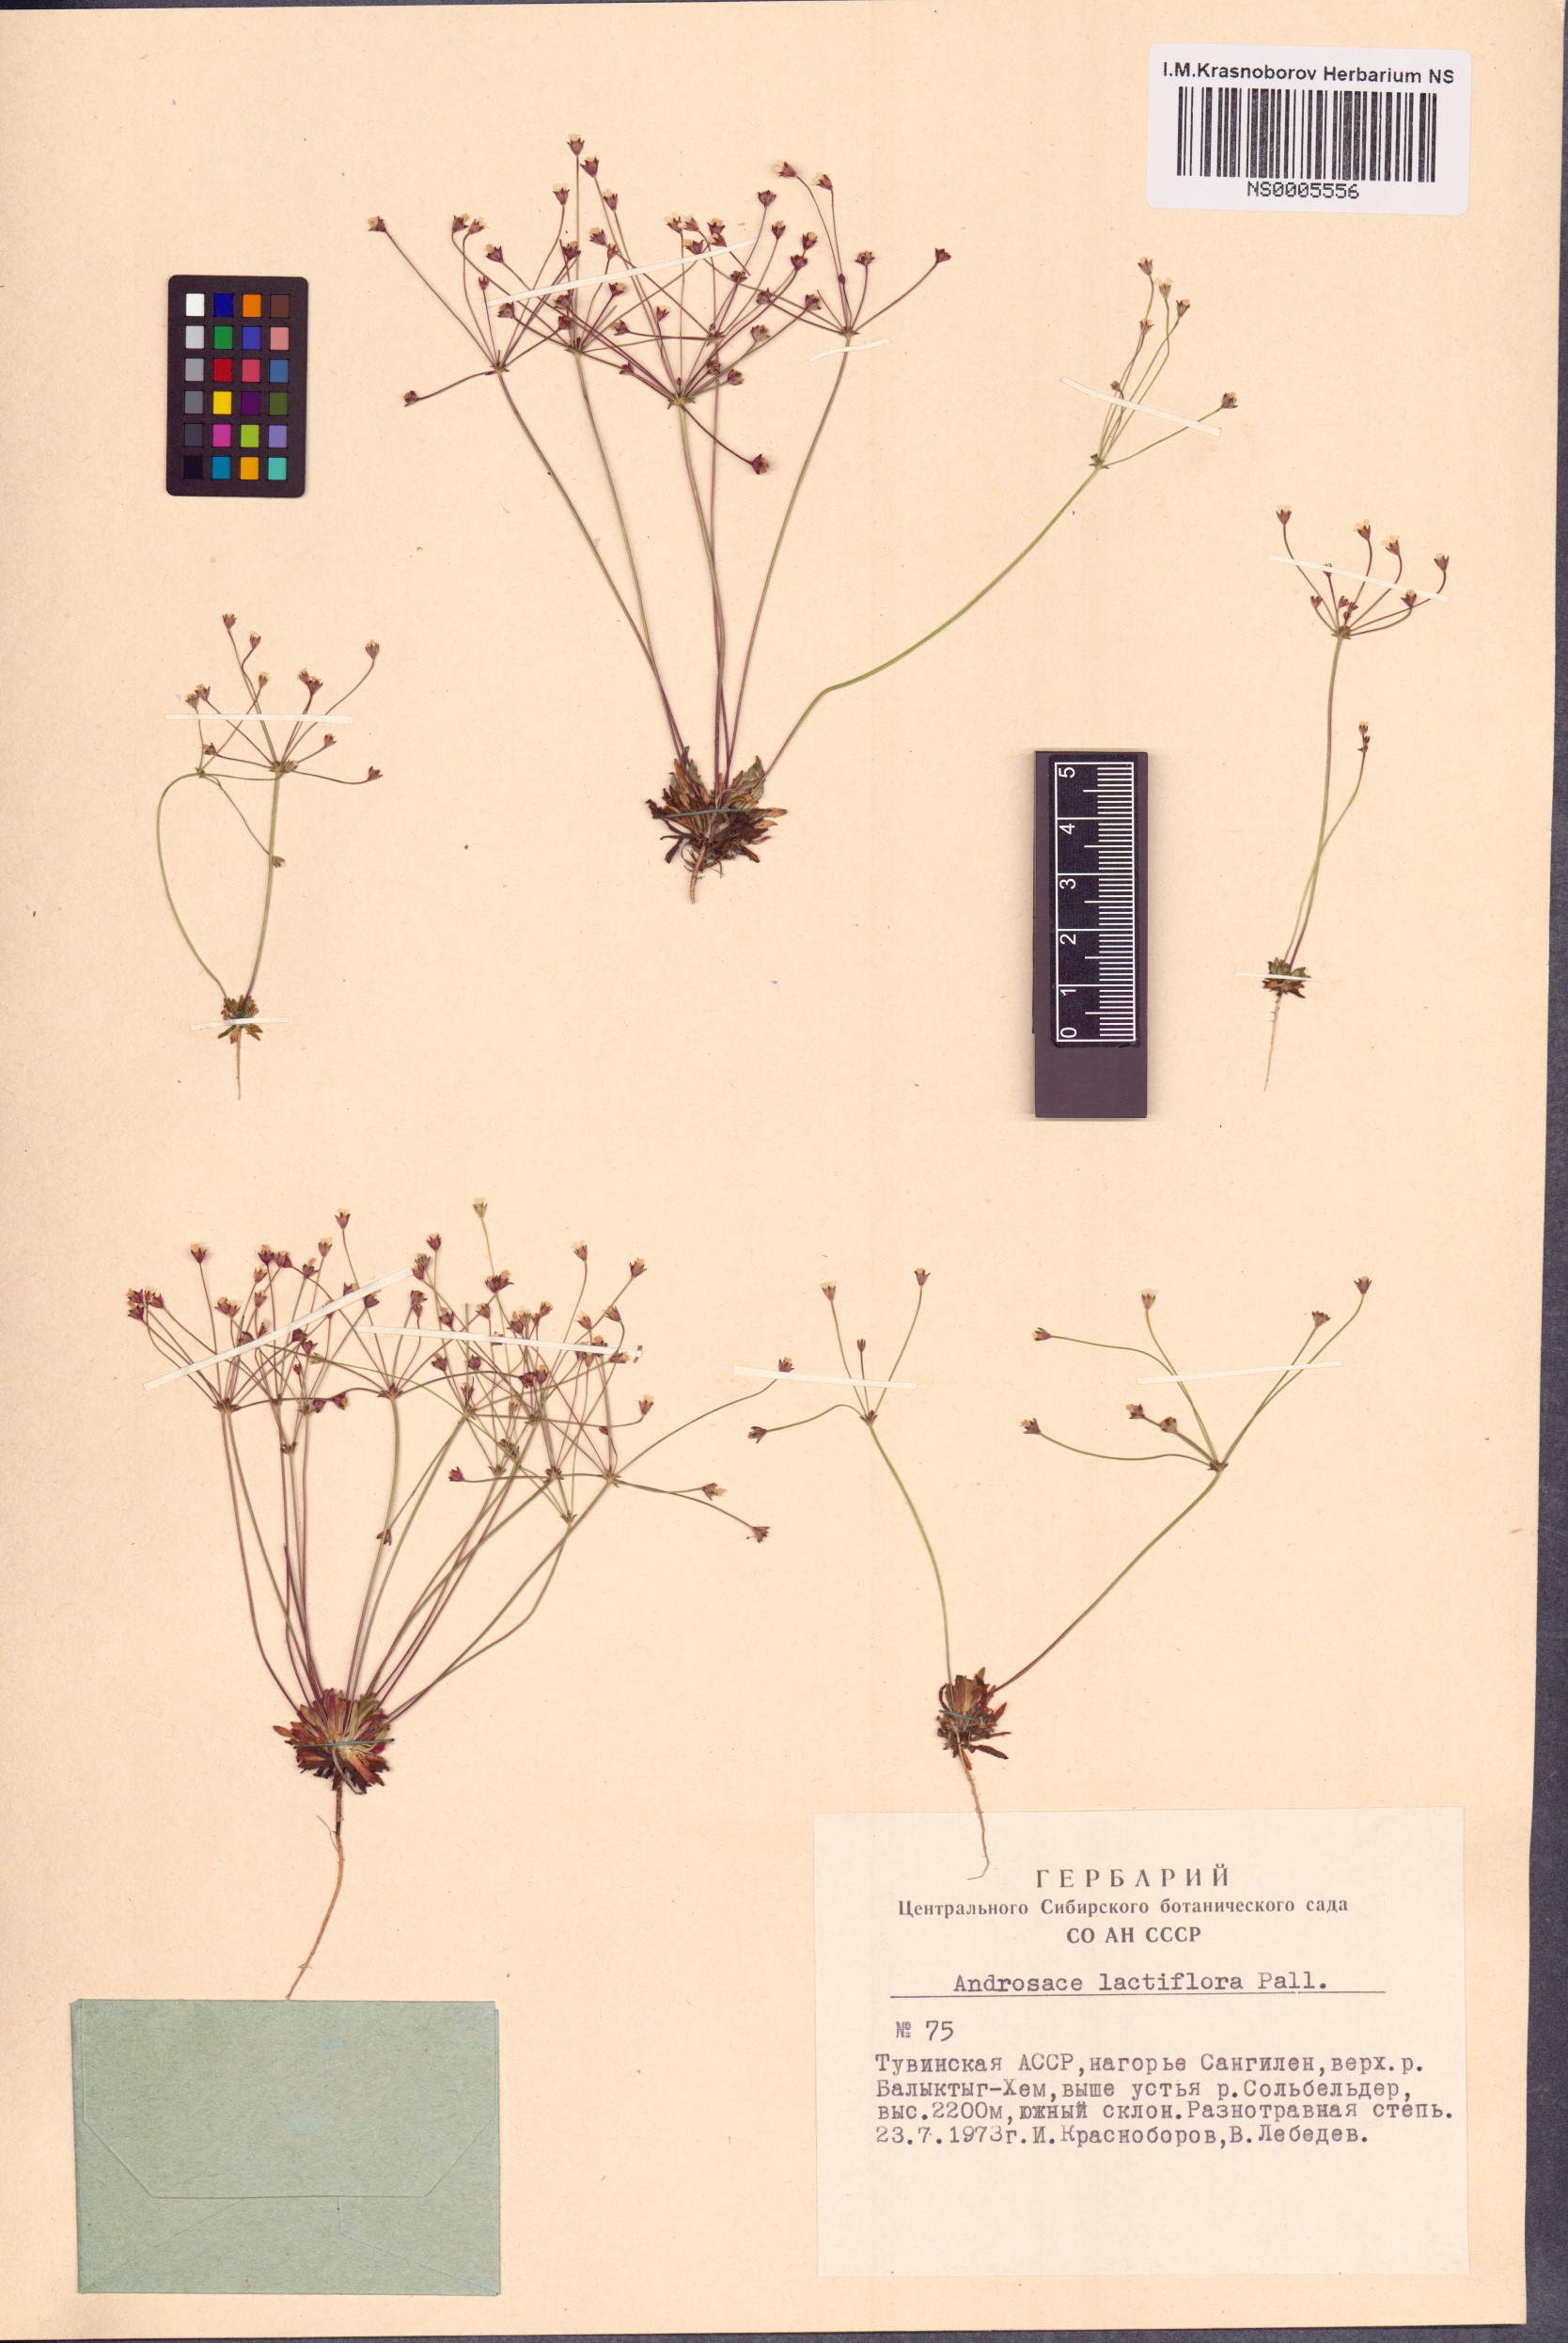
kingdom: Plantae
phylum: Tracheophyta
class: Magnoliopsida
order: Ericales
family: Primulaceae
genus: Androsace
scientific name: Androsace lactiflora
